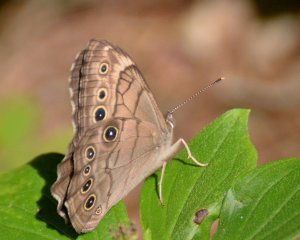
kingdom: Animalia
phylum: Arthropoda
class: Insecta
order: Lepidoptera
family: Nymphalidae
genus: Lethe
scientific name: Lethe anthedon
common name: Northern Pearly-Eye
